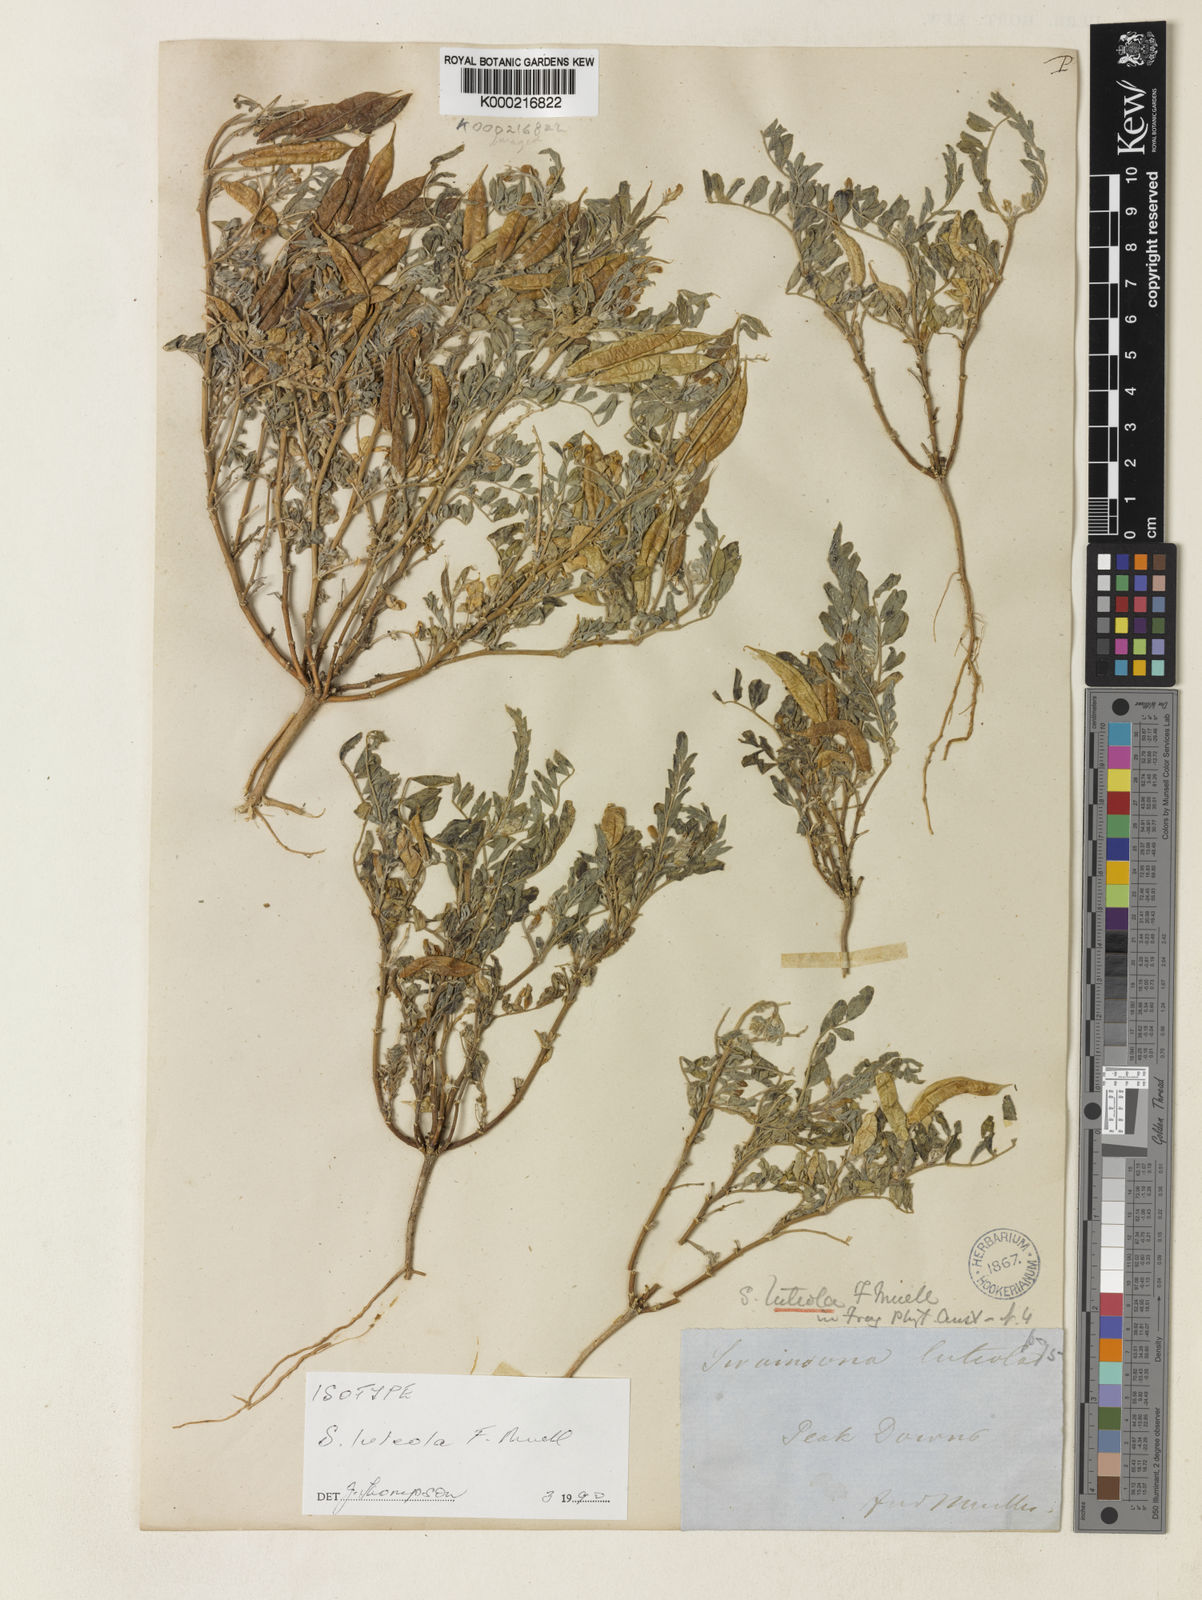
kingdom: Plantae
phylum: Tracheophyta
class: Magnoliopsida
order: Fabales
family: Fabaceae
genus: Swainsona
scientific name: Swainsona luteola
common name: Dwarf darling-pea
